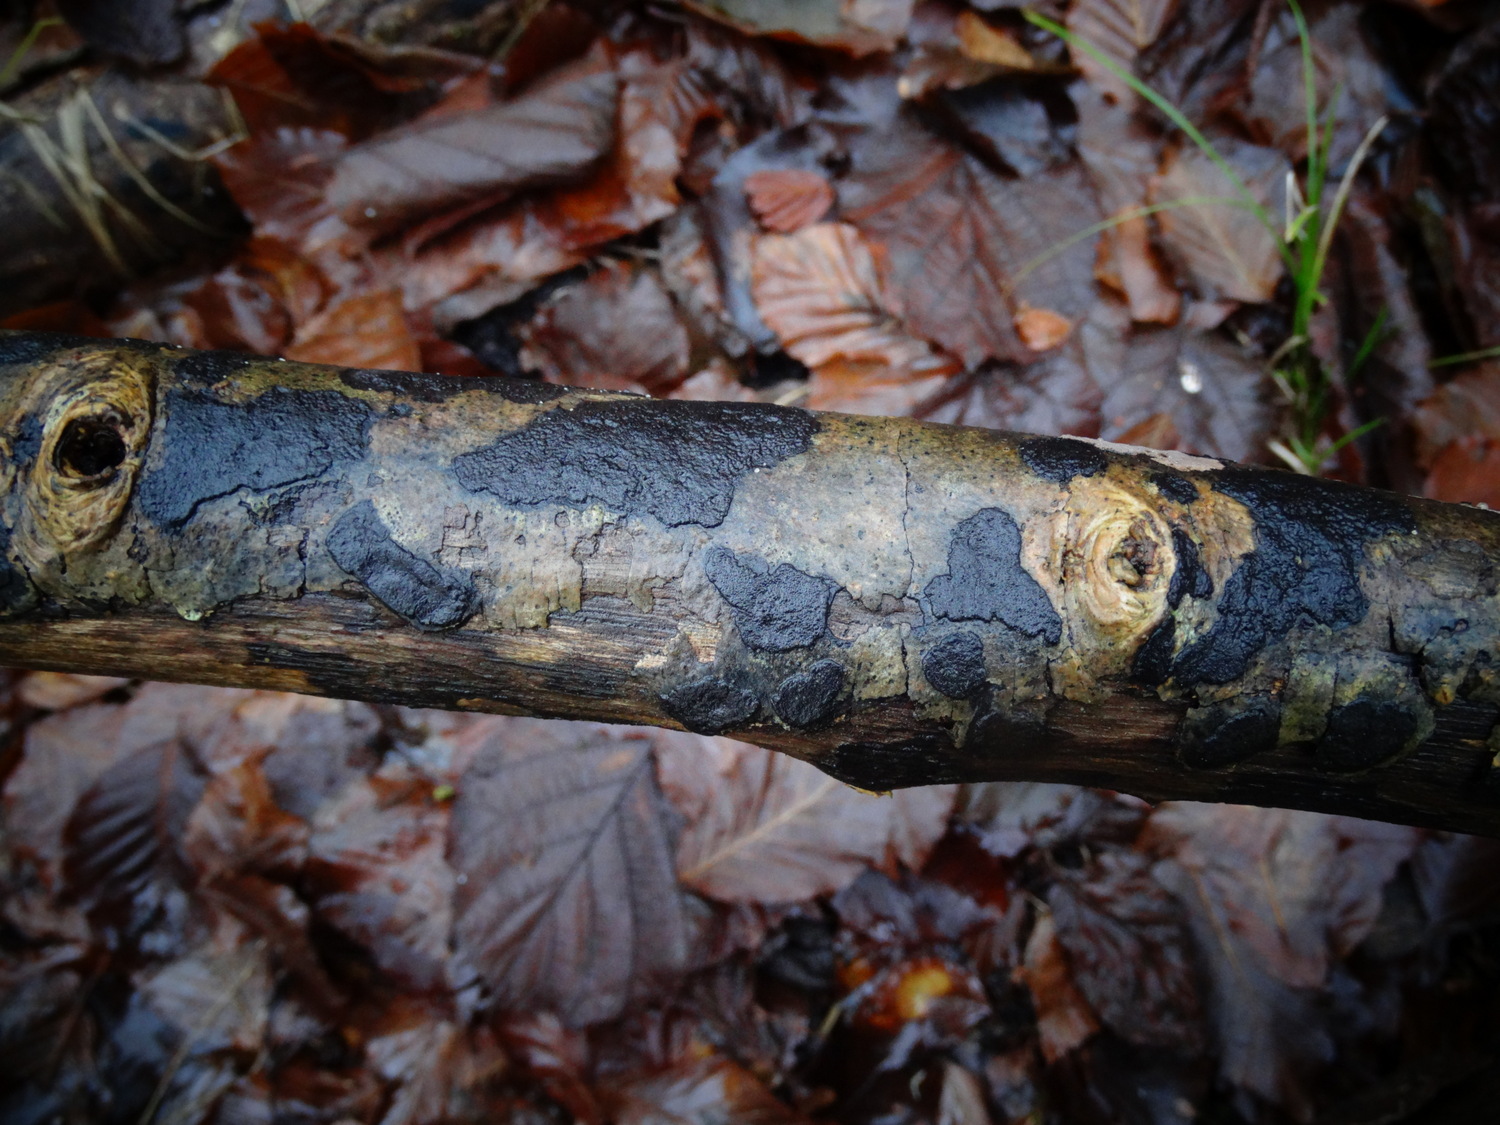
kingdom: Fungi
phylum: Ascomycota
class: Sordariomycetes
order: Xylariales
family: Hypoxylaceae
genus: Hypoxylon
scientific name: Hypoxylon petriniae
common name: nedsænket kulbær
